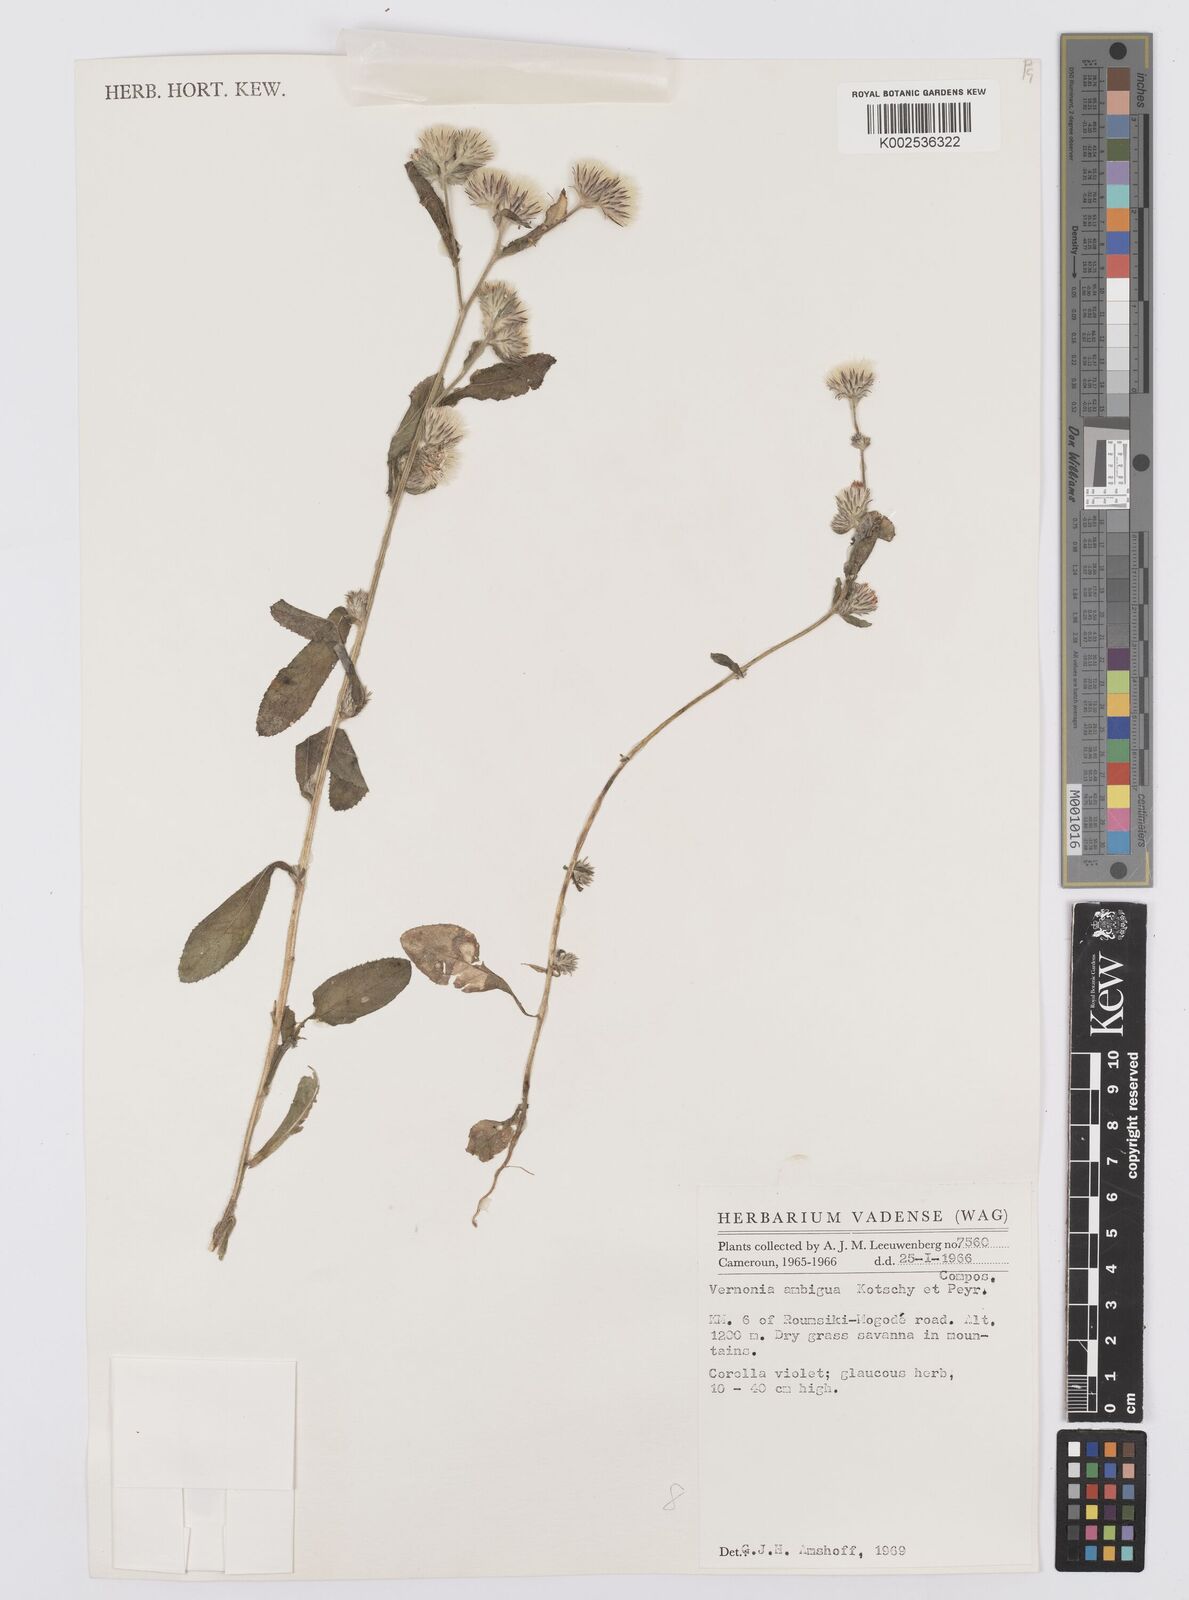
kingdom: Plantae
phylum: Tracheophyta
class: Magnoliopsida
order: Asterales
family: Asteraceae
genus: Vernoniastrum
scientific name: Vernoniastrum ambiguum
